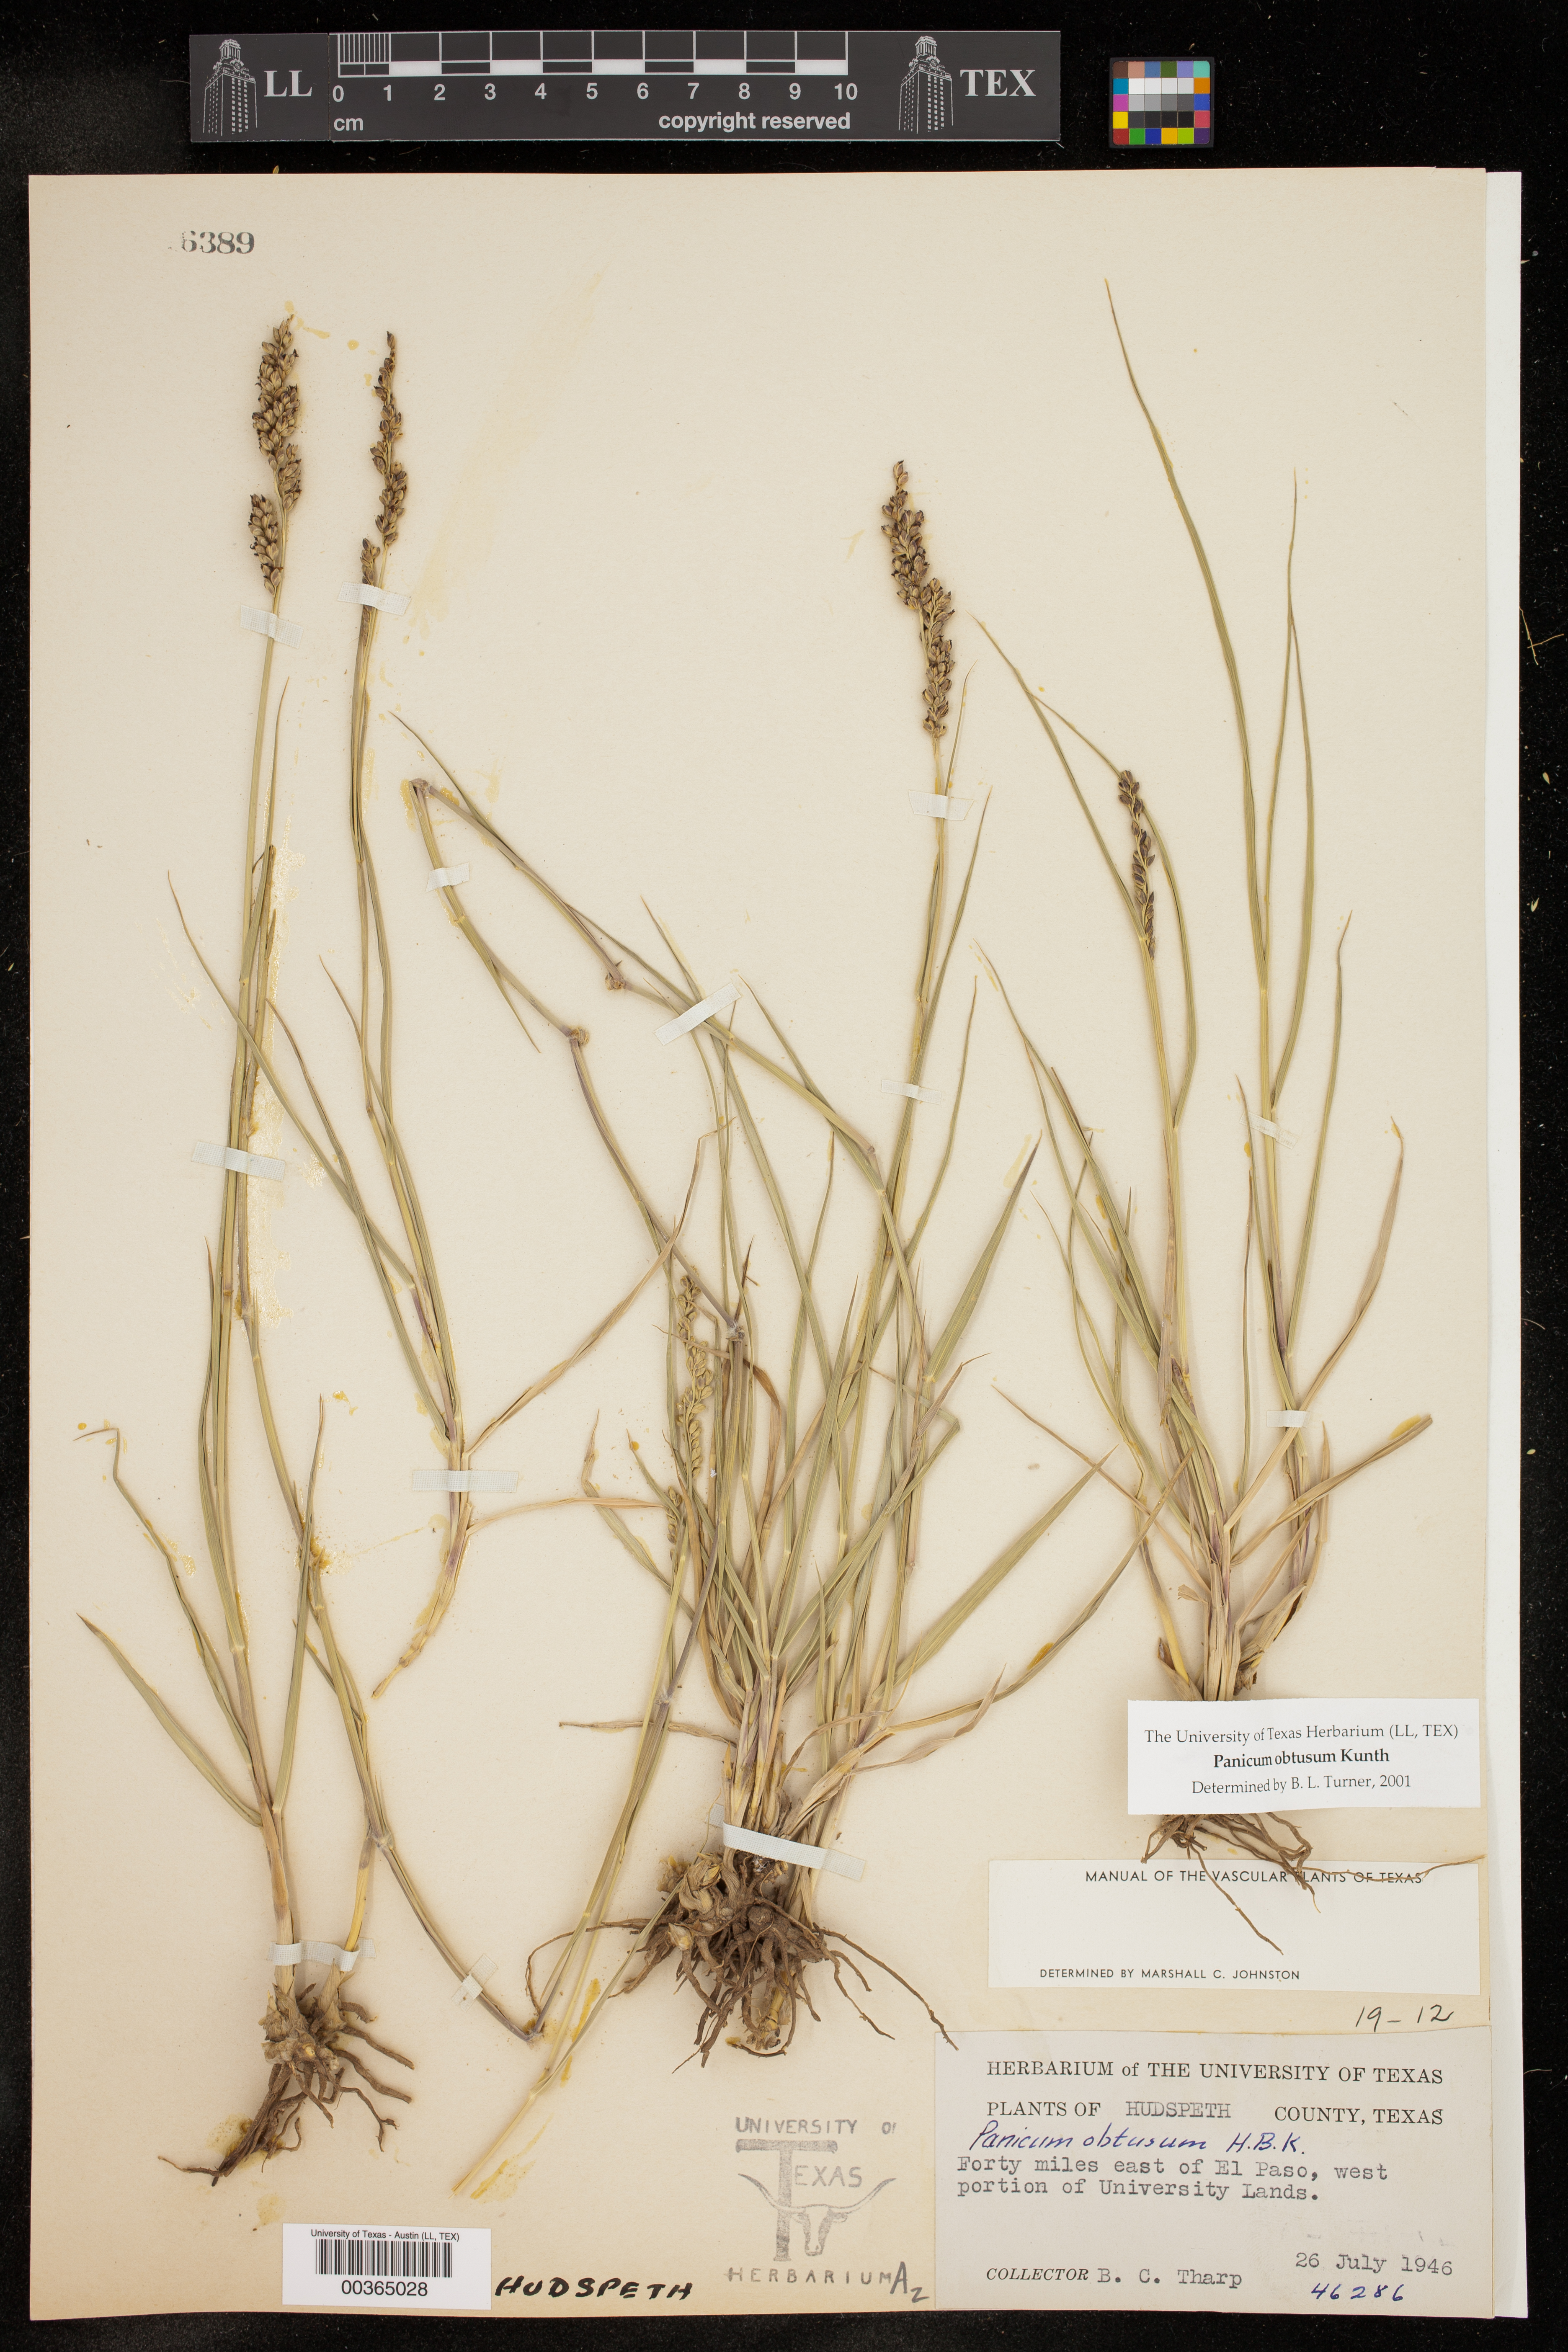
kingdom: Plantae
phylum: Tracheophyta
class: Liliopsida
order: Poales
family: Poaceae
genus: Hopia
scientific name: Hopia obtusa
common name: Vine-mesquite
